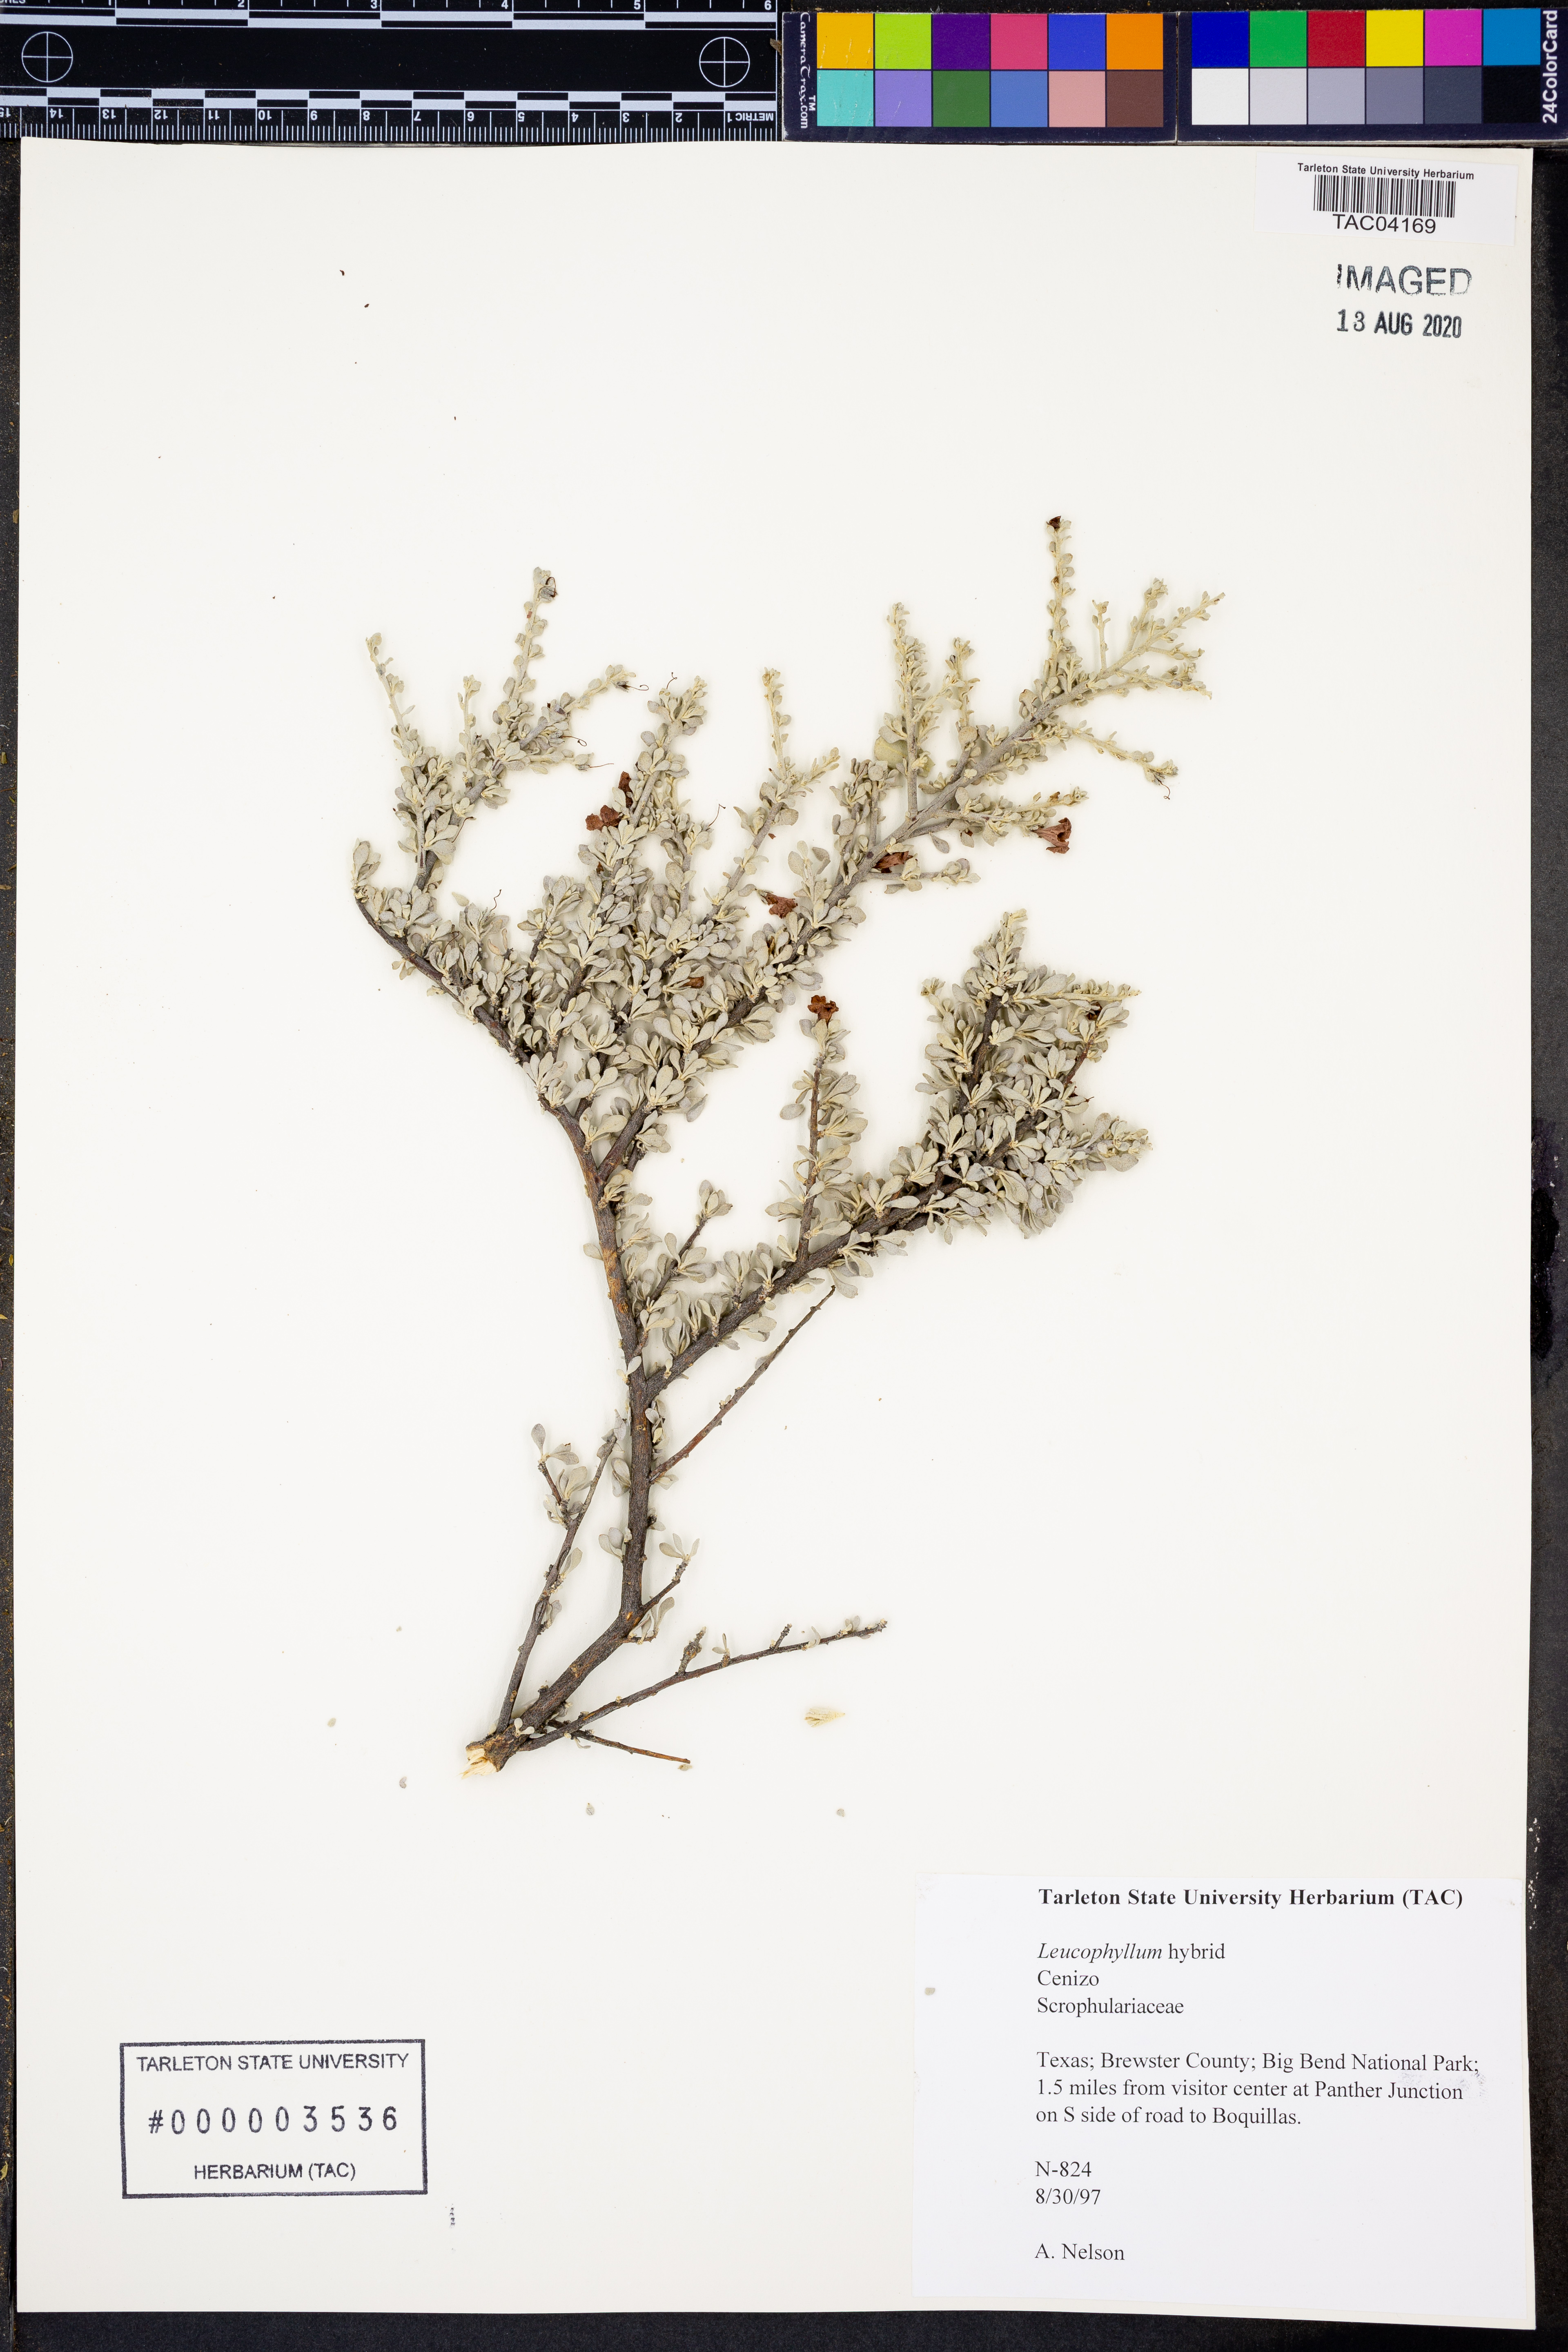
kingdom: Plantae
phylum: Tracheophyta
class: Magnoliopsida
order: Lamiales
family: Scrophulariaceae
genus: Leucophyllum
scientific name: Leucophyllum
